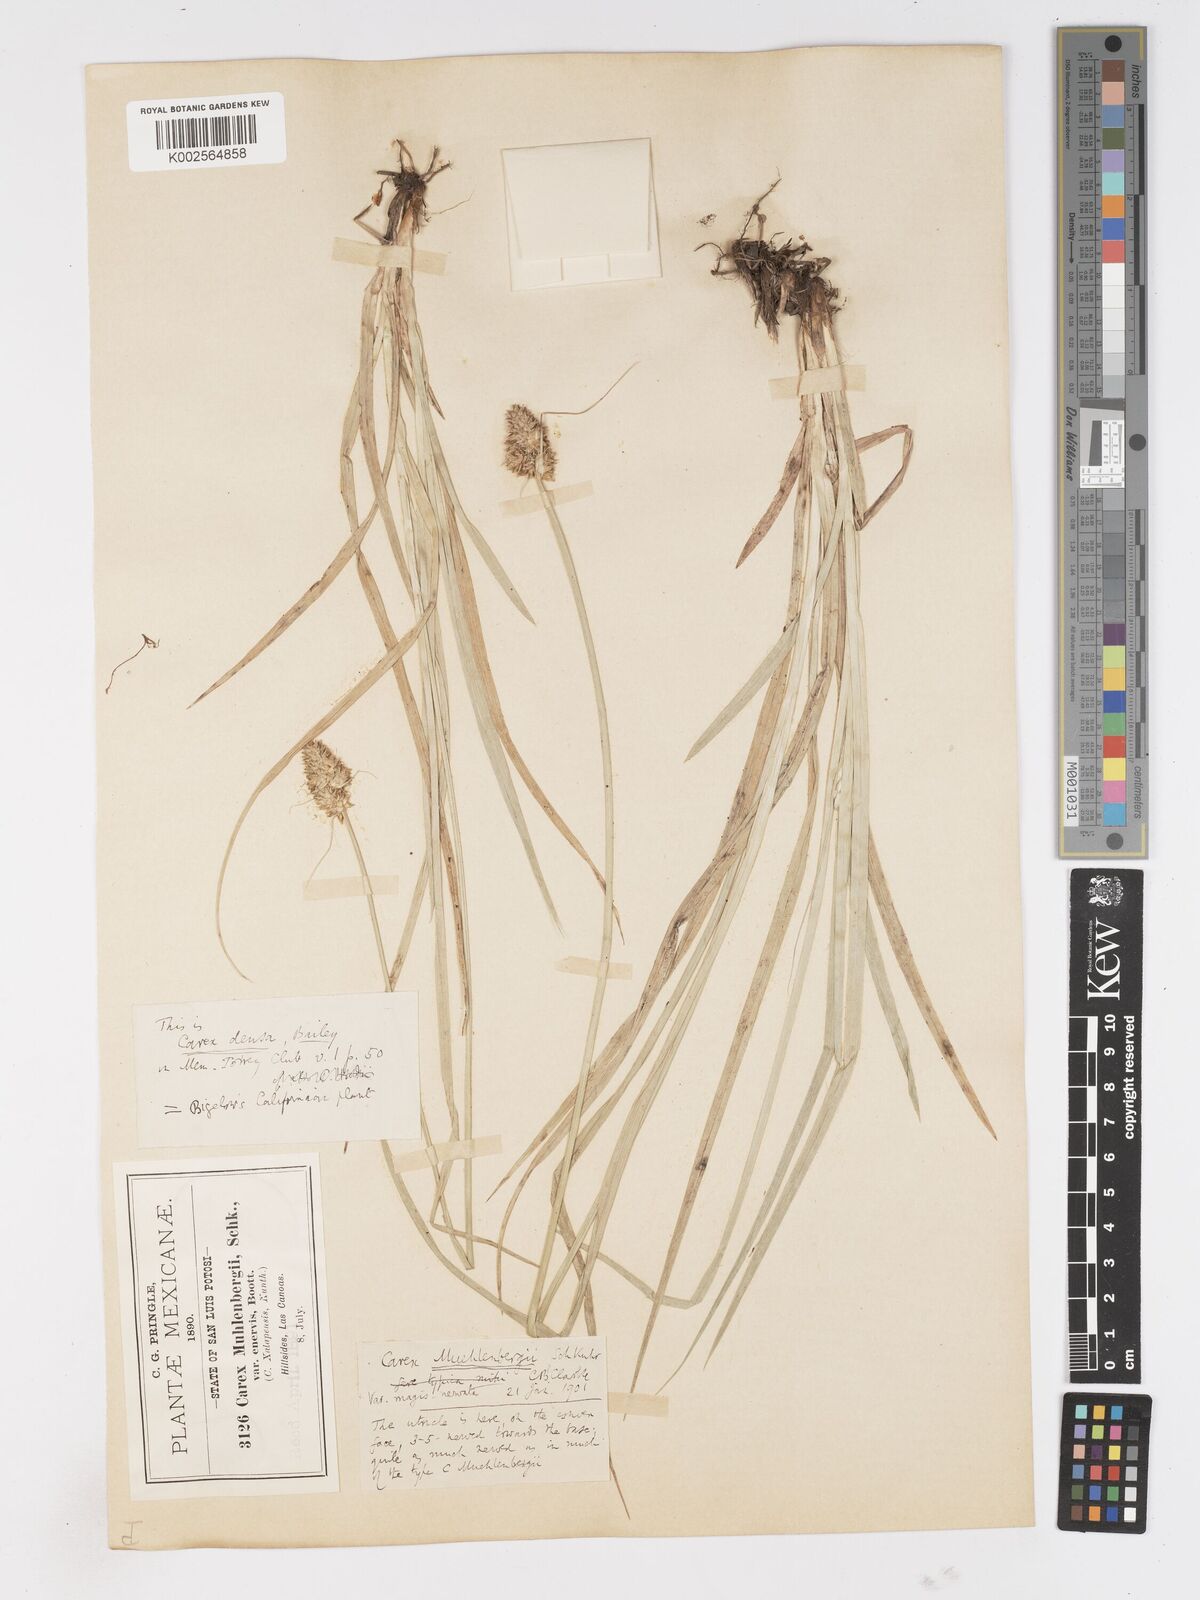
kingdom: Plantae
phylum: Tracheophyta
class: Liliopsida
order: Poales
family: Cyperaceae
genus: Carex
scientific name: Carex muehlenbergii
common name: Muhlenberg's bracted sedge
